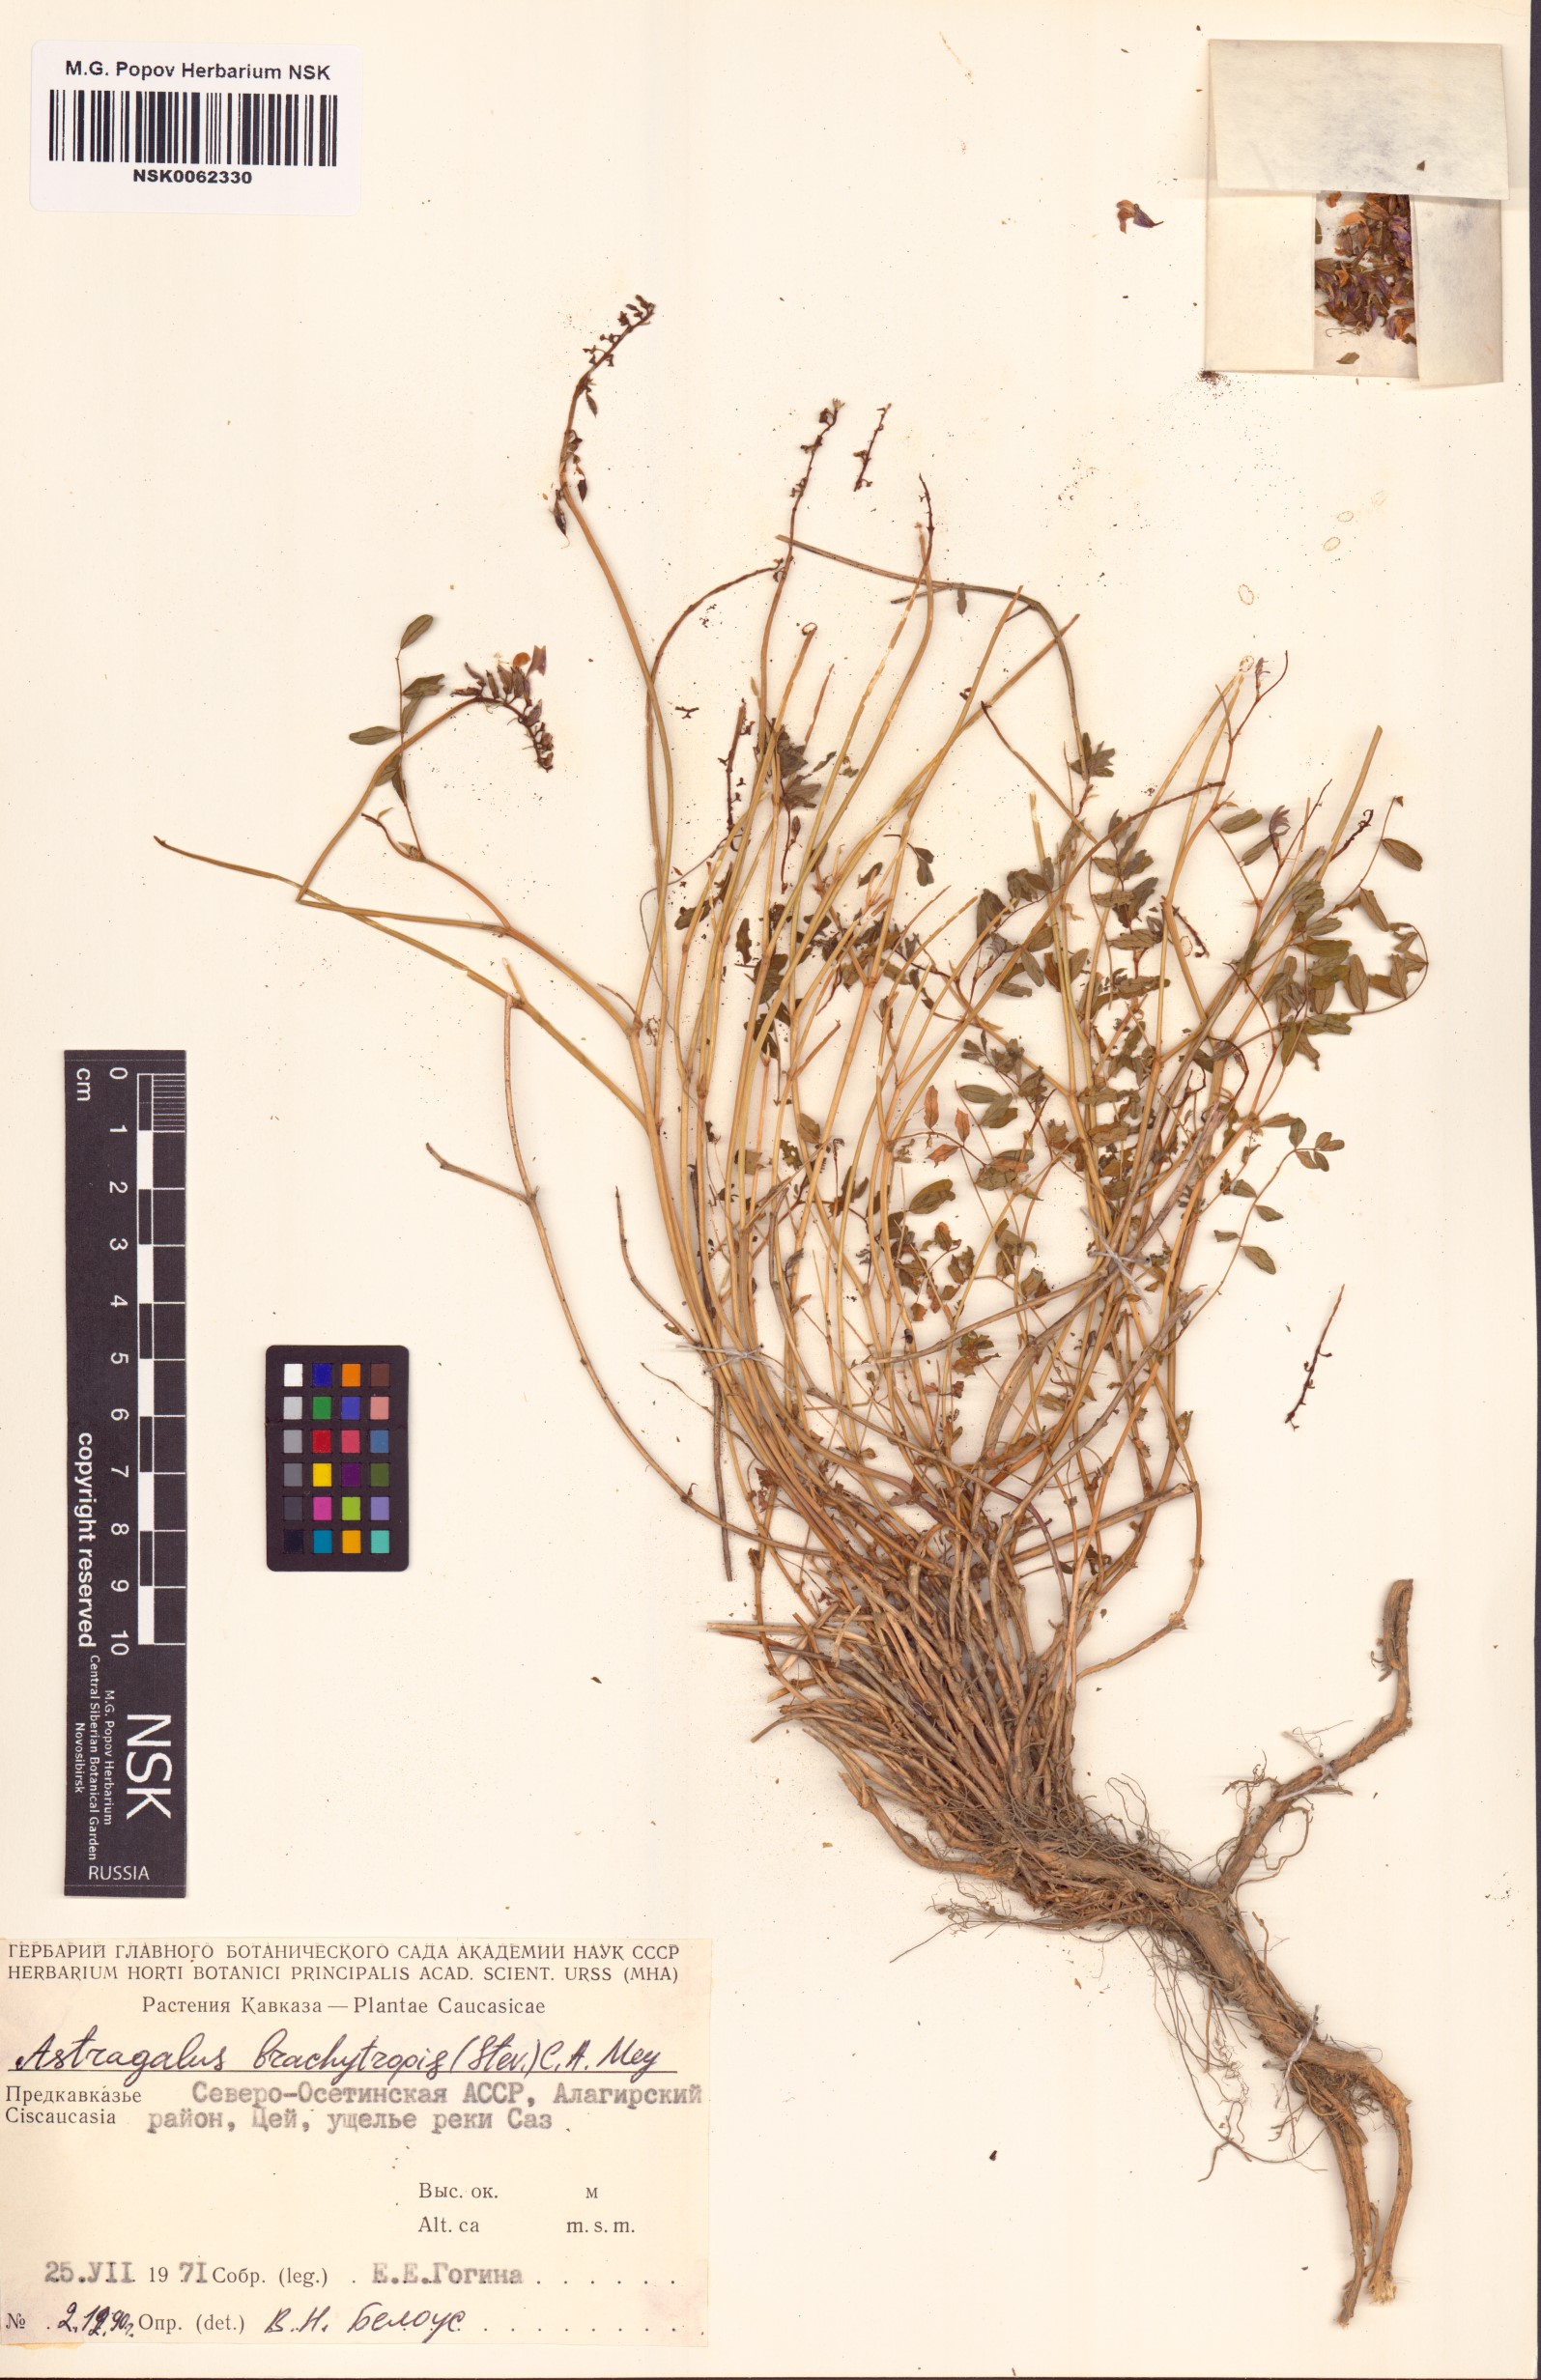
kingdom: Plantae
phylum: Tracheophyta
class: Magnoliopsida
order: Fabales
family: Fabaceae
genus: Astragalus
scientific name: Astragalus brachytropis
